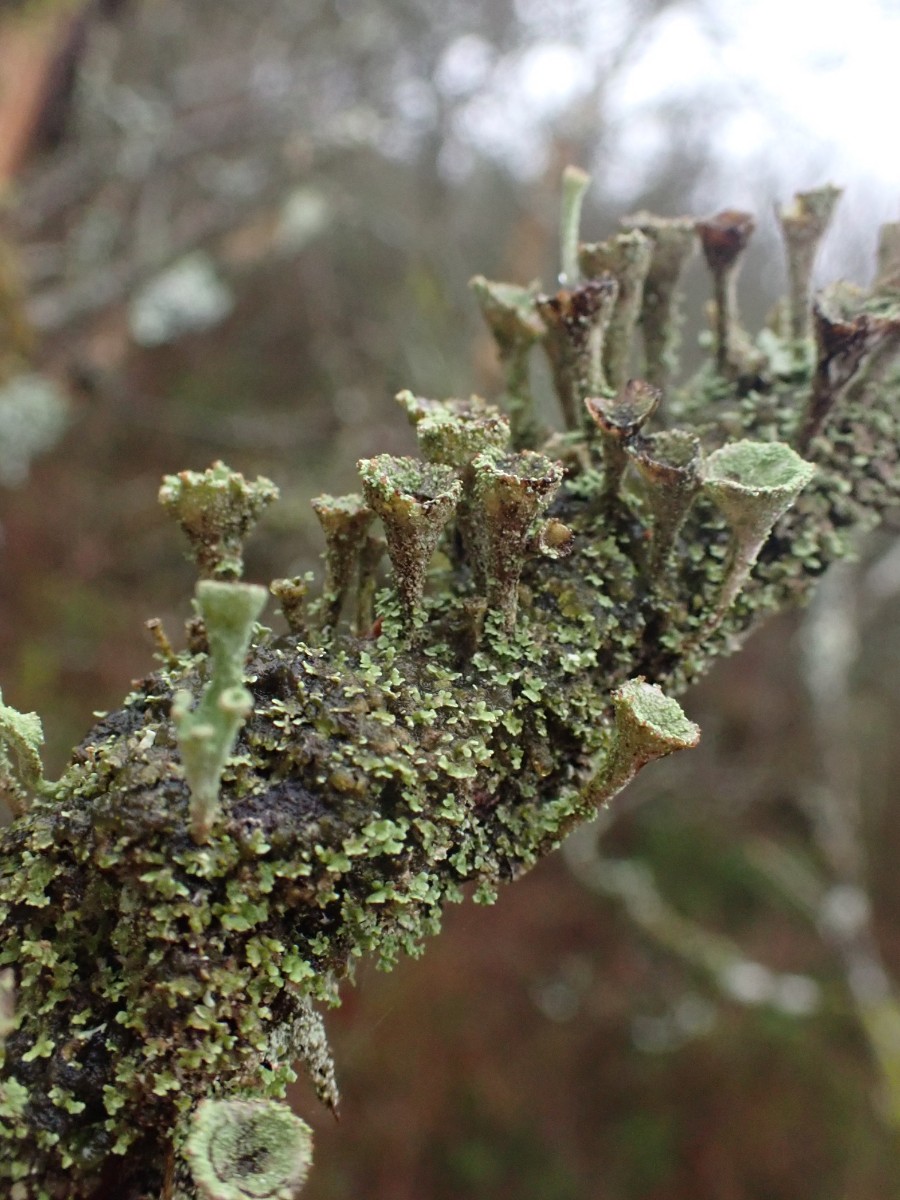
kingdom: Fungi
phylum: Ascomycota
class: Lecanoromycetes
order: Lecanorales
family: Cladoniaceae
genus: Cladonia
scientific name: Cladonia
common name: brungrøn bægerlav
